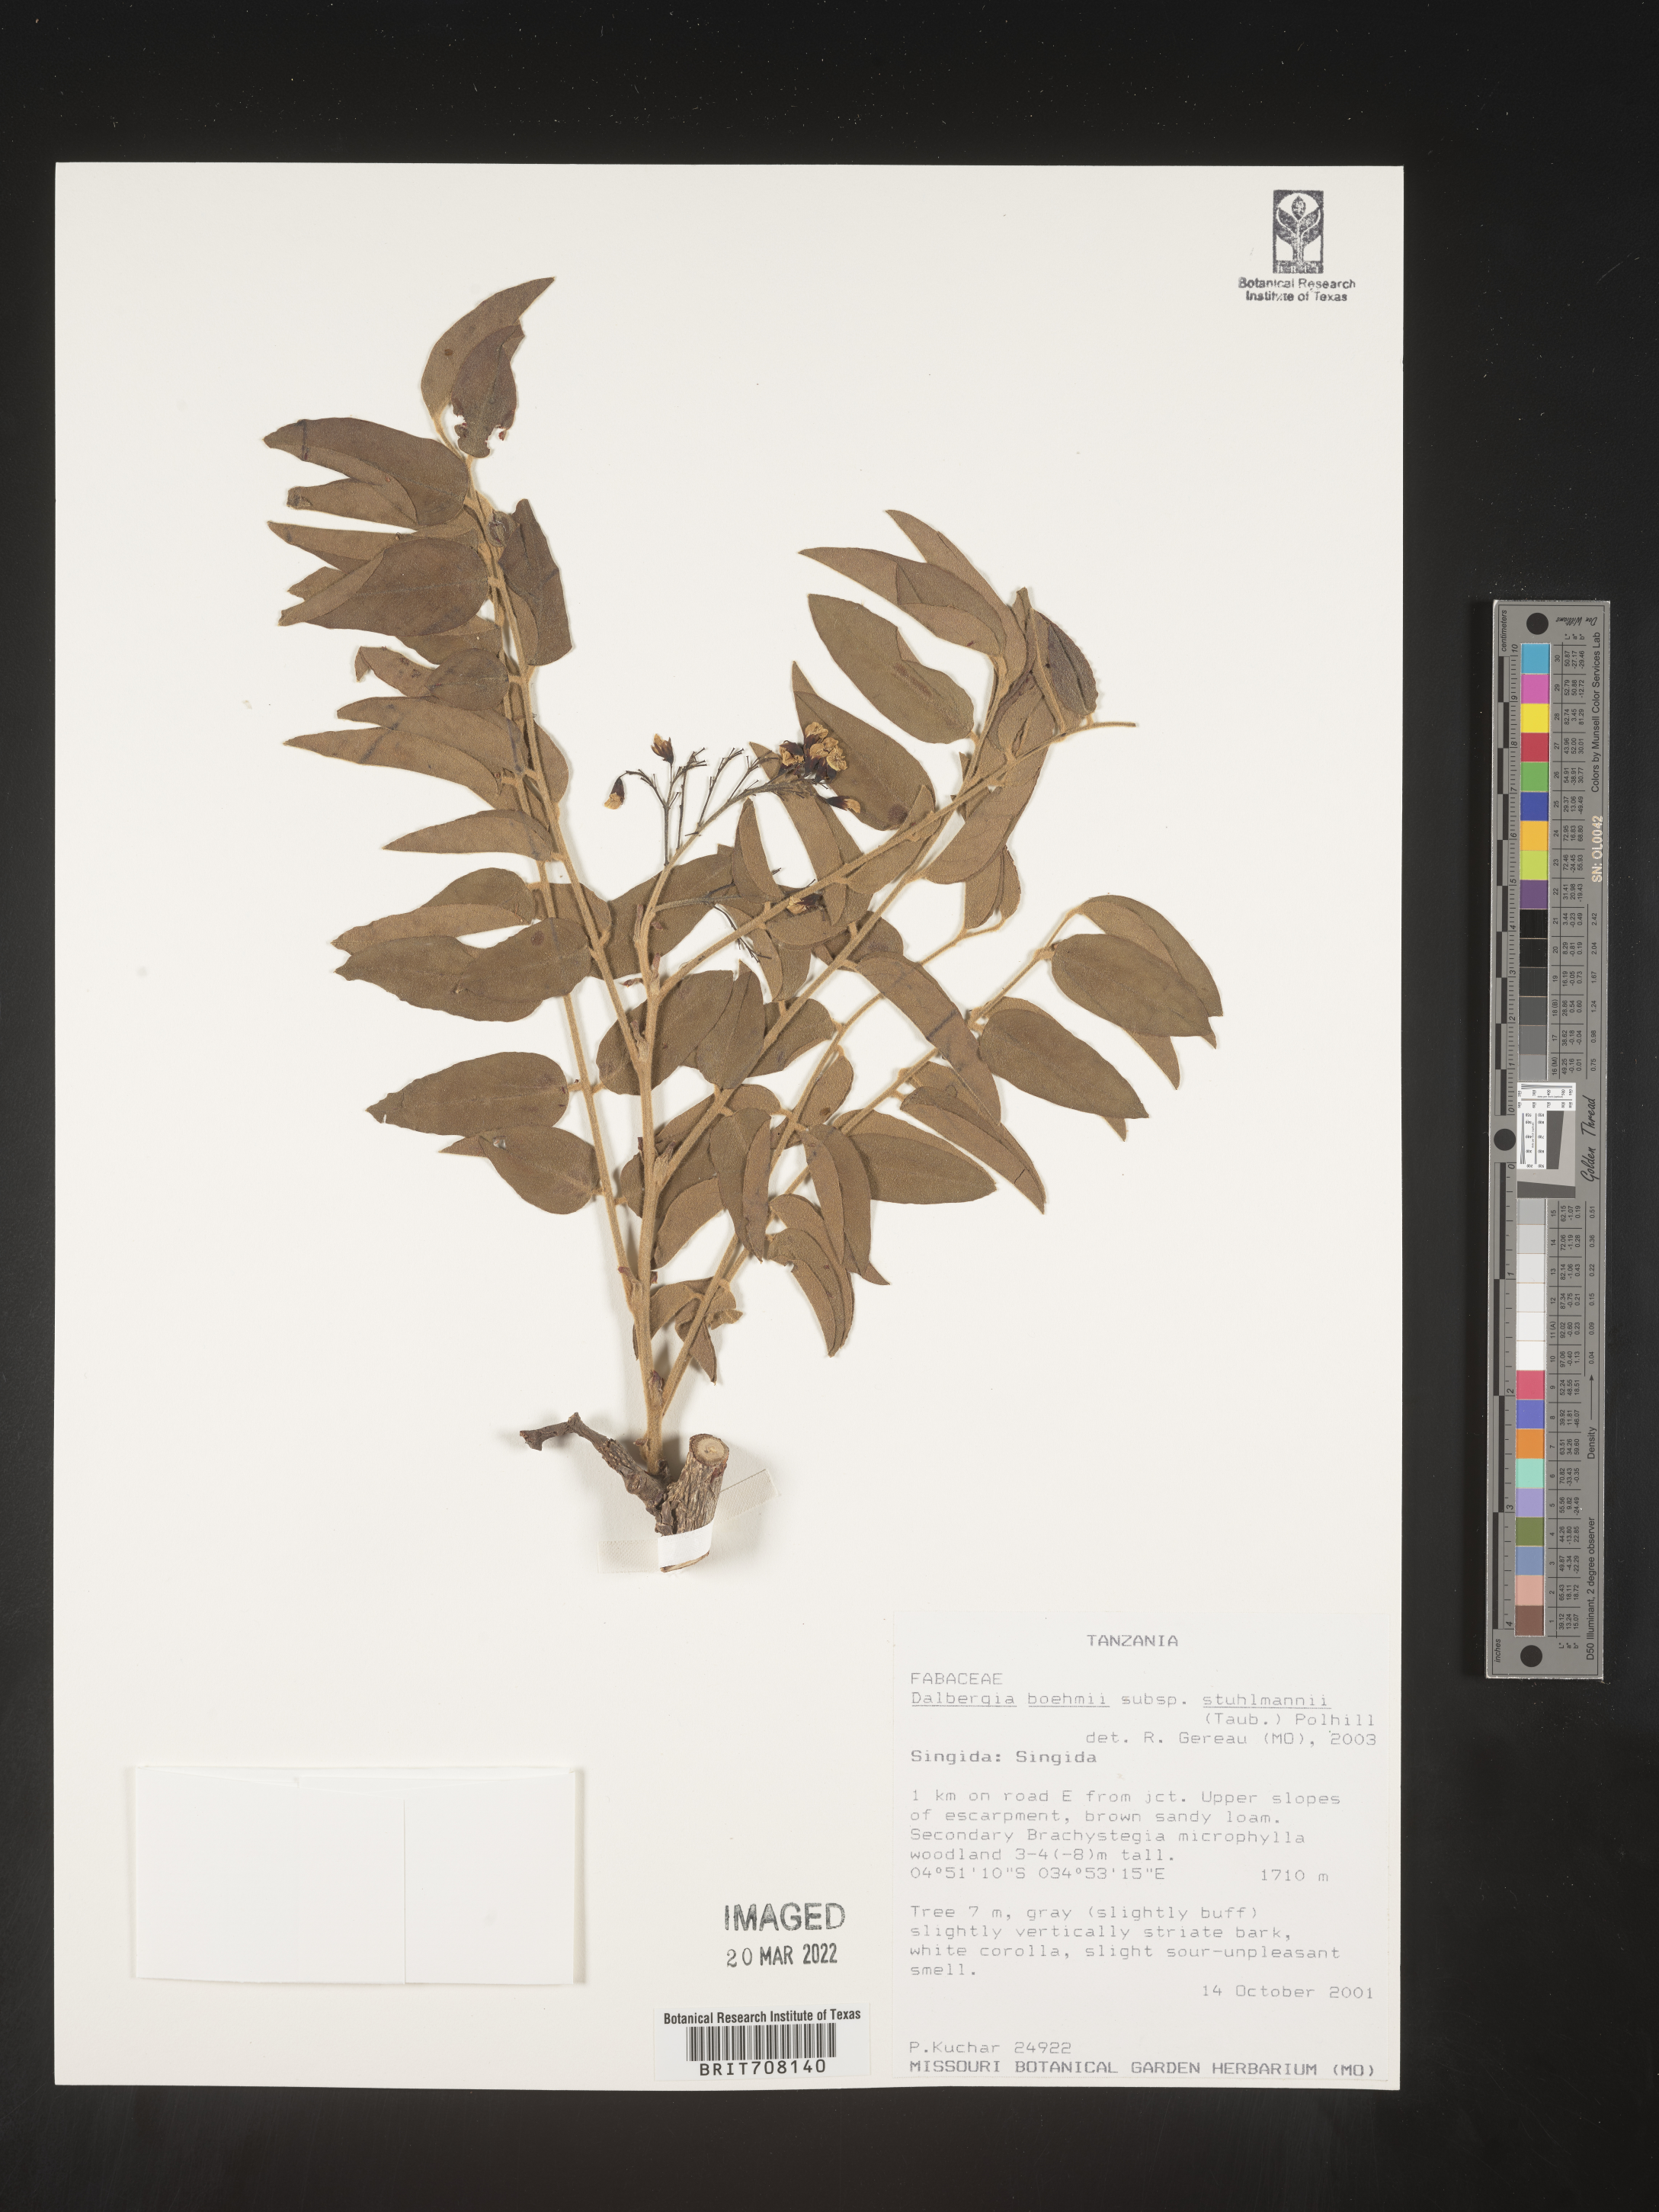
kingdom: Plantae
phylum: Tracheophyta
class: Magnoliopsida
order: Fabales
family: Fabaceae
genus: Dalbergia
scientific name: Dalbergia
